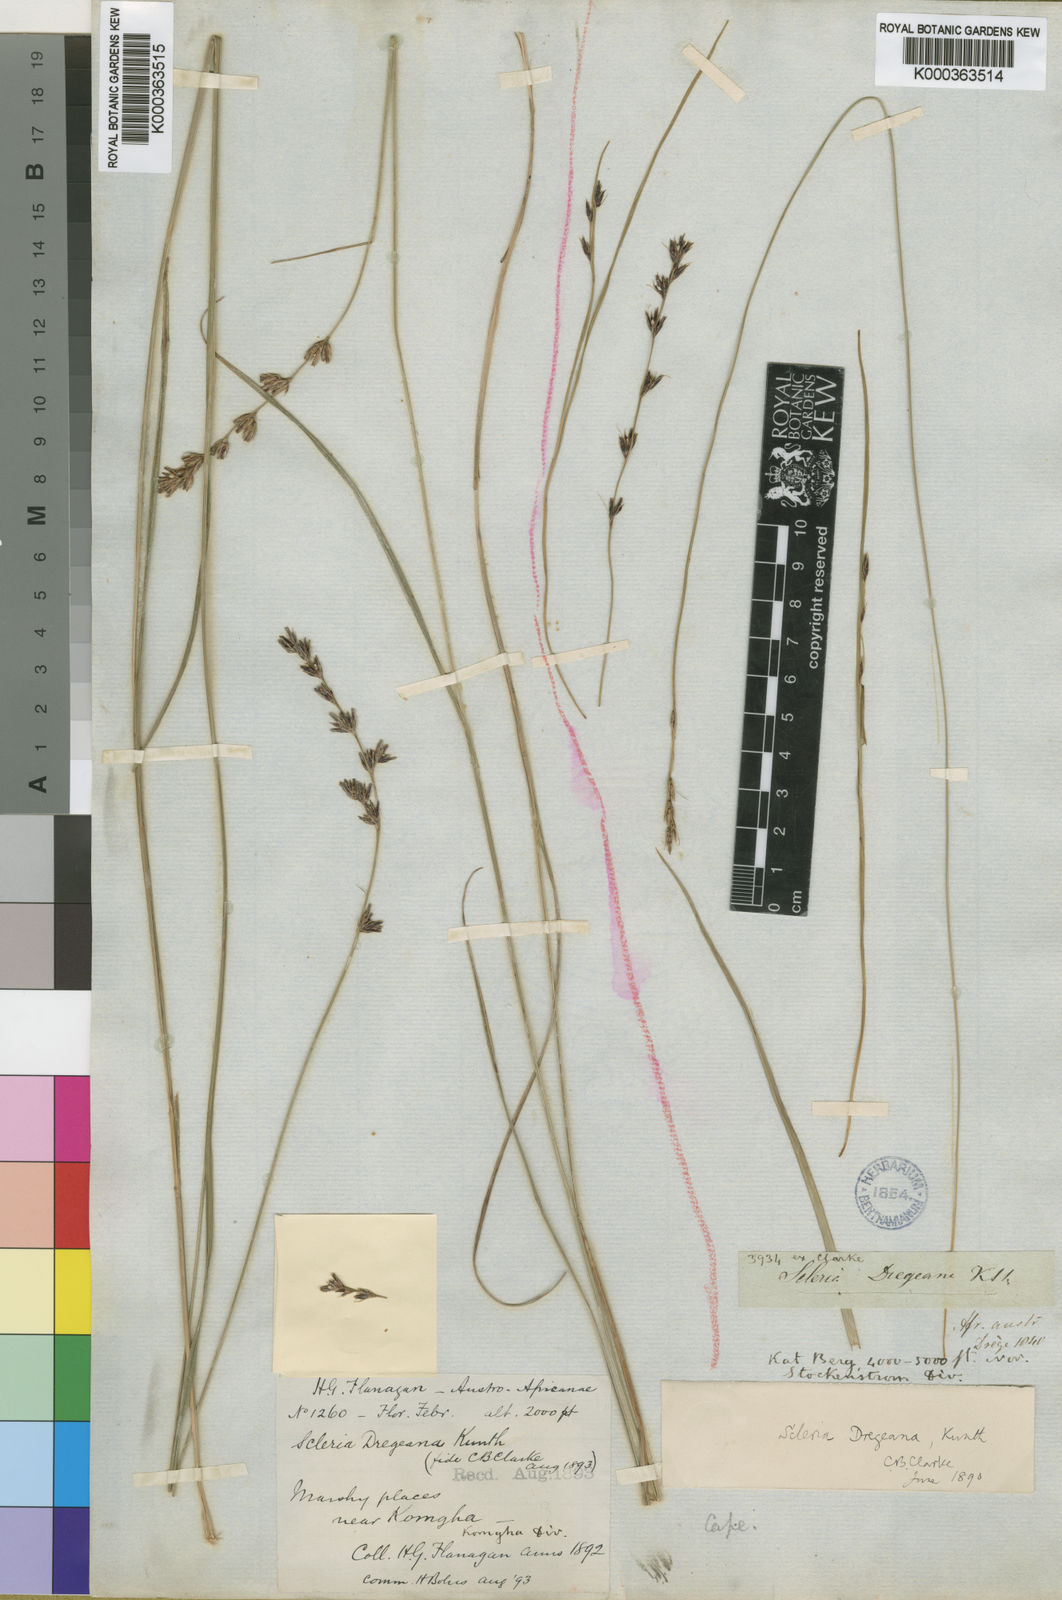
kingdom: Plantae
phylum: Tracheophyta
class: Liliopsida
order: Poales
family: Cyperaceae
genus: Scleria
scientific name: Scleria dregeana
